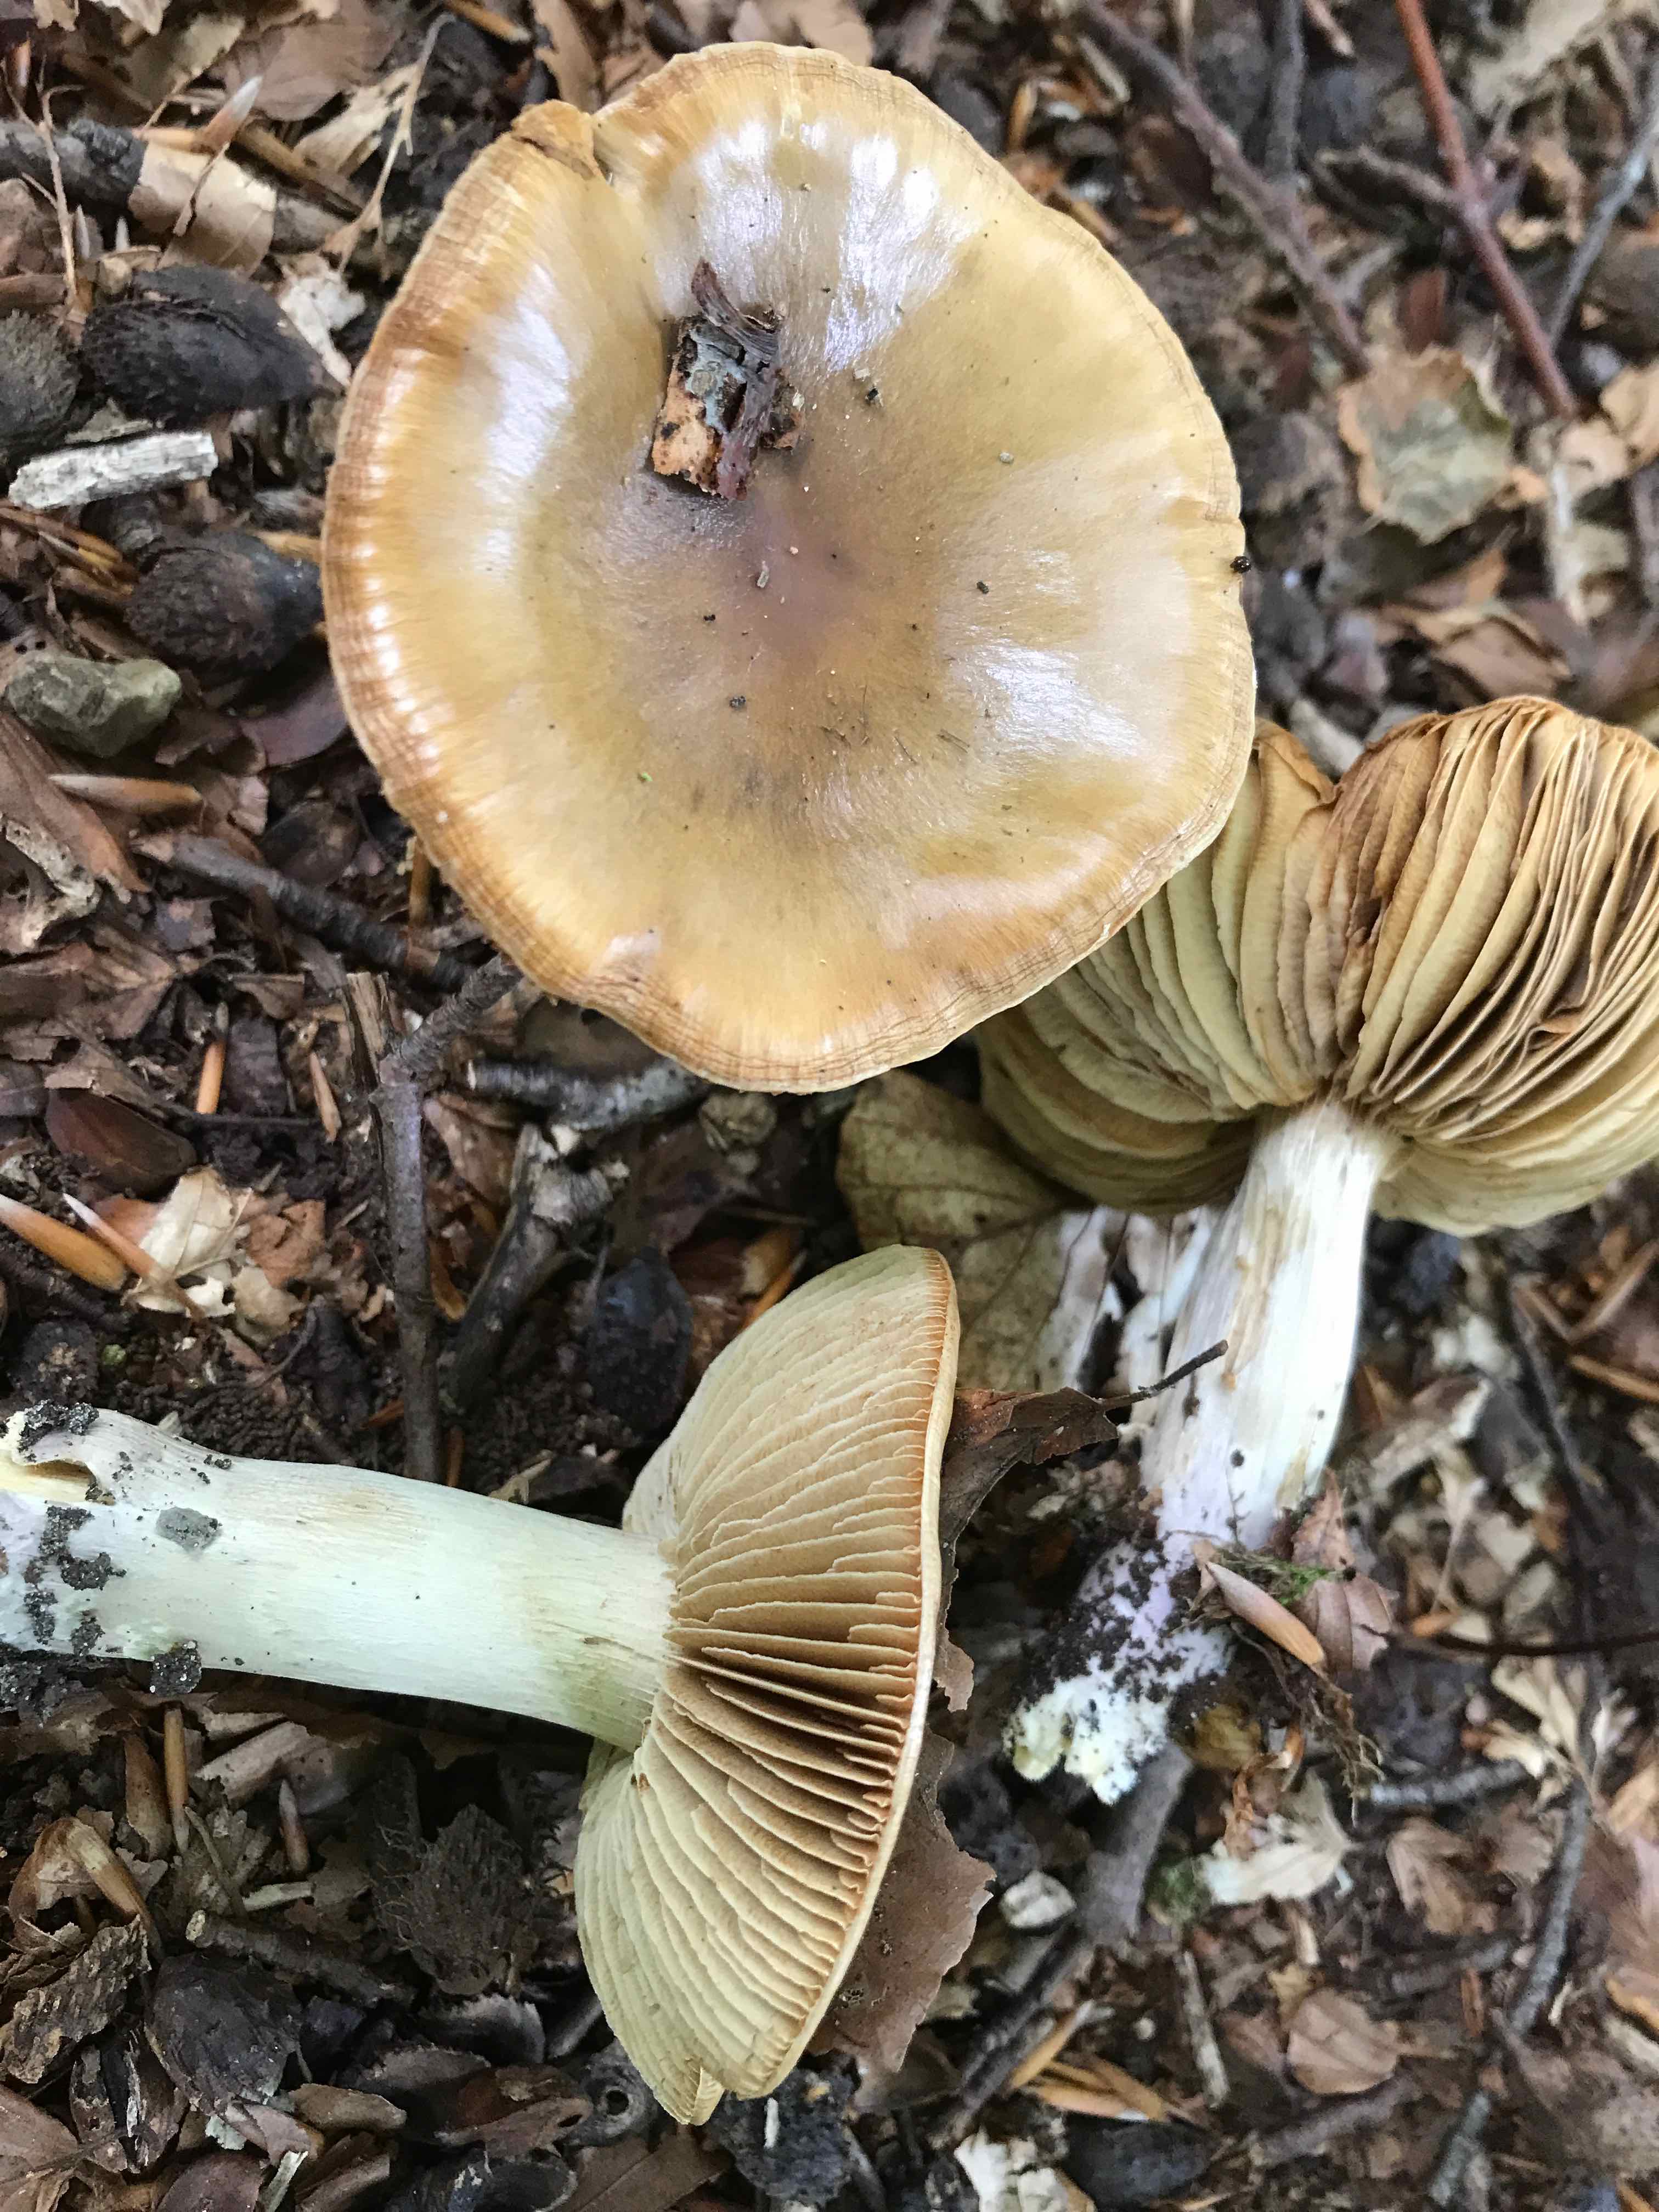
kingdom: Fungi
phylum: Basidiomycota
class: Agaricomycetes
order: Agaricales
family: Cortinariaceae
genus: Cortinarius
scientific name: Cortinarius elatior
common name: høj slørhat
